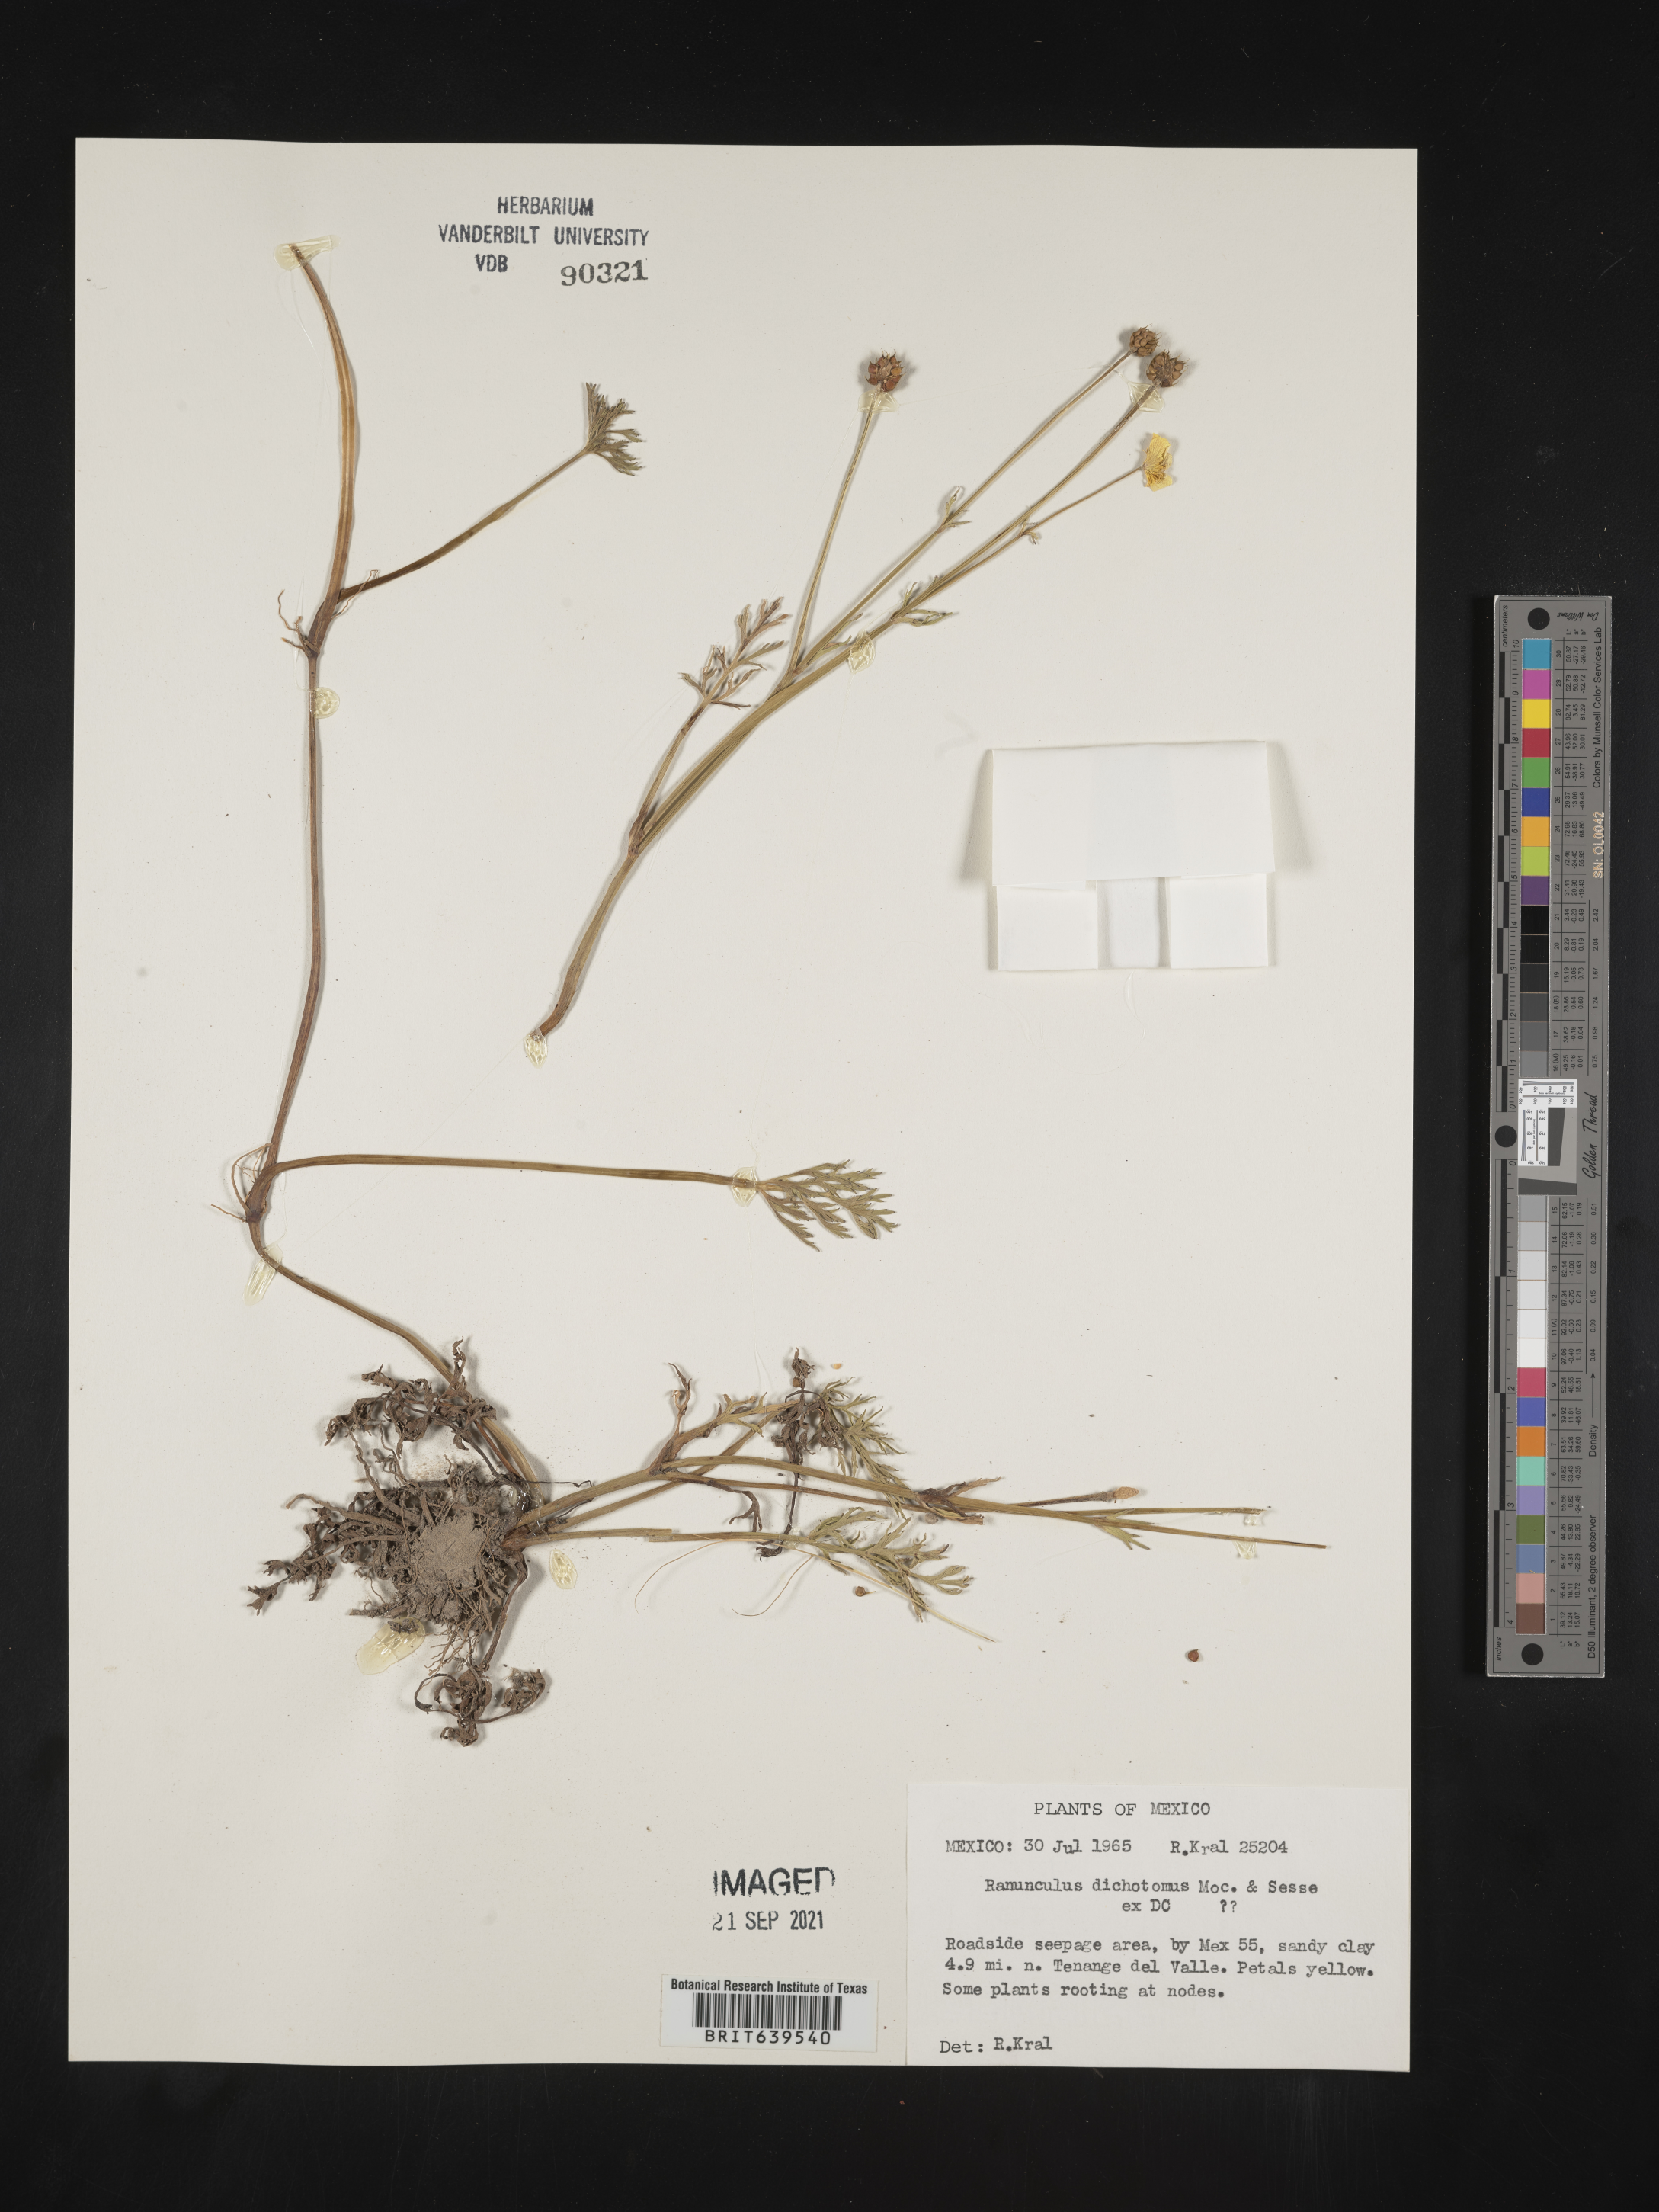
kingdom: Plantae
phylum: Tracheophyta
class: Magnoliopsida
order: Ranunculales
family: Ranunculaceae
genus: Ranunculus
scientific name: Ranunculus
